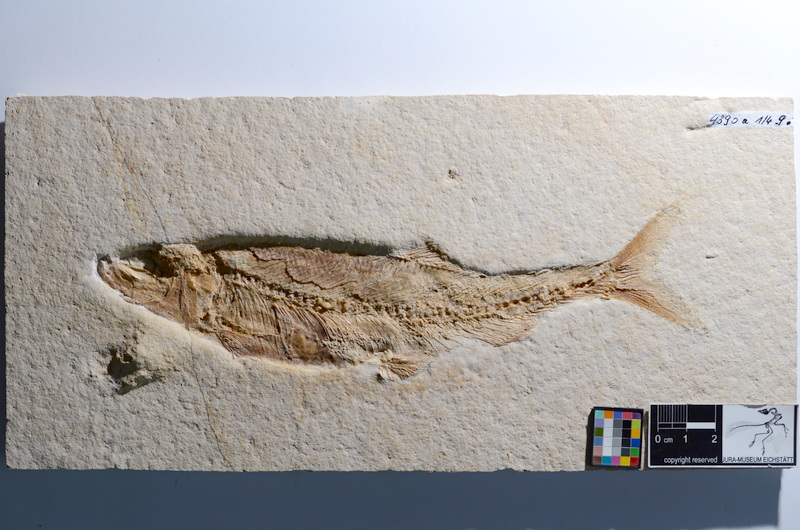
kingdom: Animalia
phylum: Chordata
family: Ascalaboidae
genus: Tharsis
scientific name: Tharsis dubius
